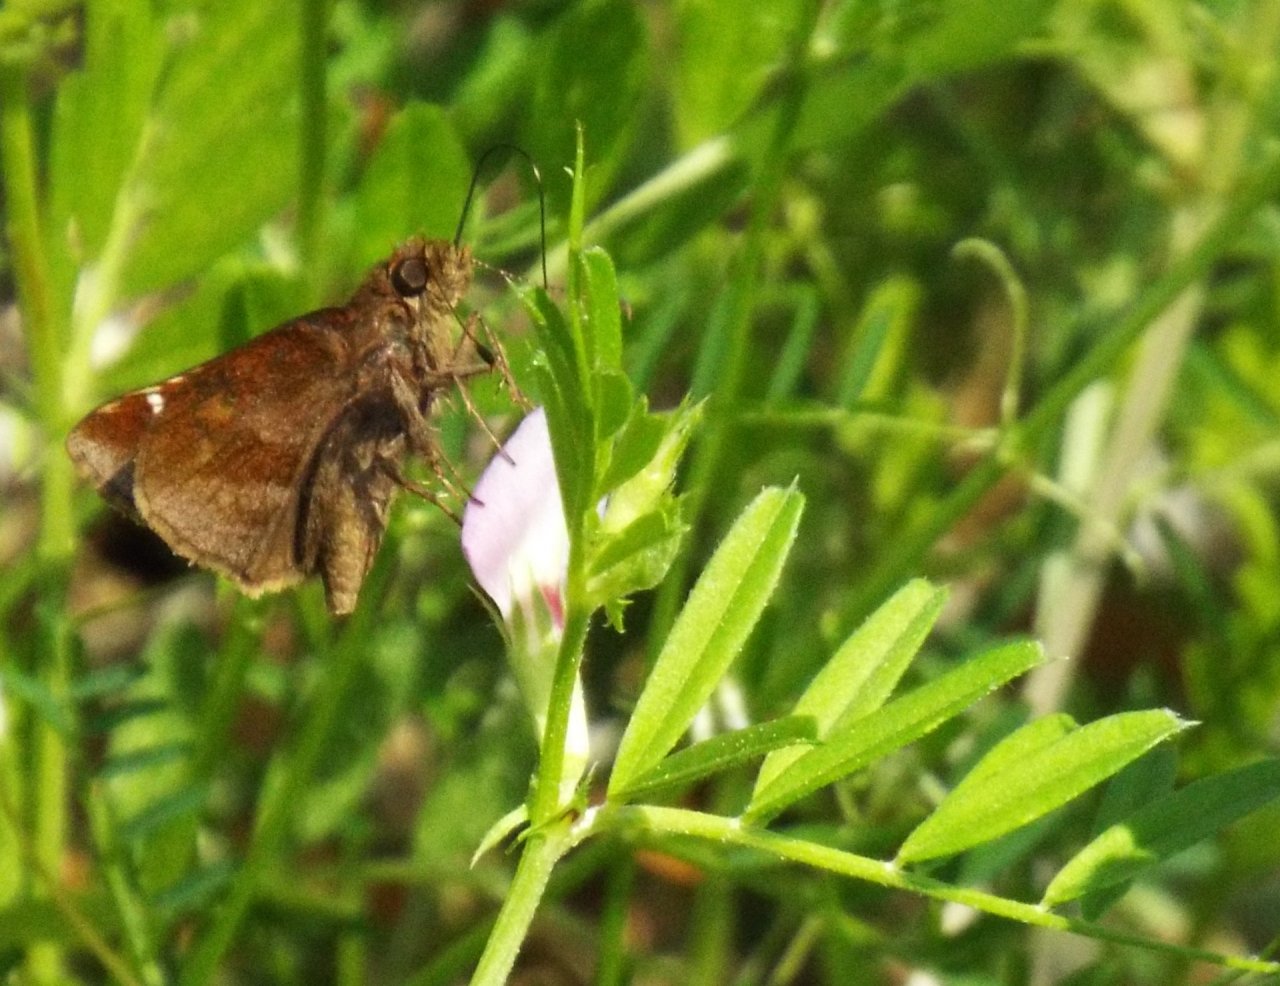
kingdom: Animalia
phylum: Arthropoda
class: Insecta
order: Lepidoptera
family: Hesperiidae
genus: Lerema
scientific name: Lerema accius
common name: Clouded Skipper
